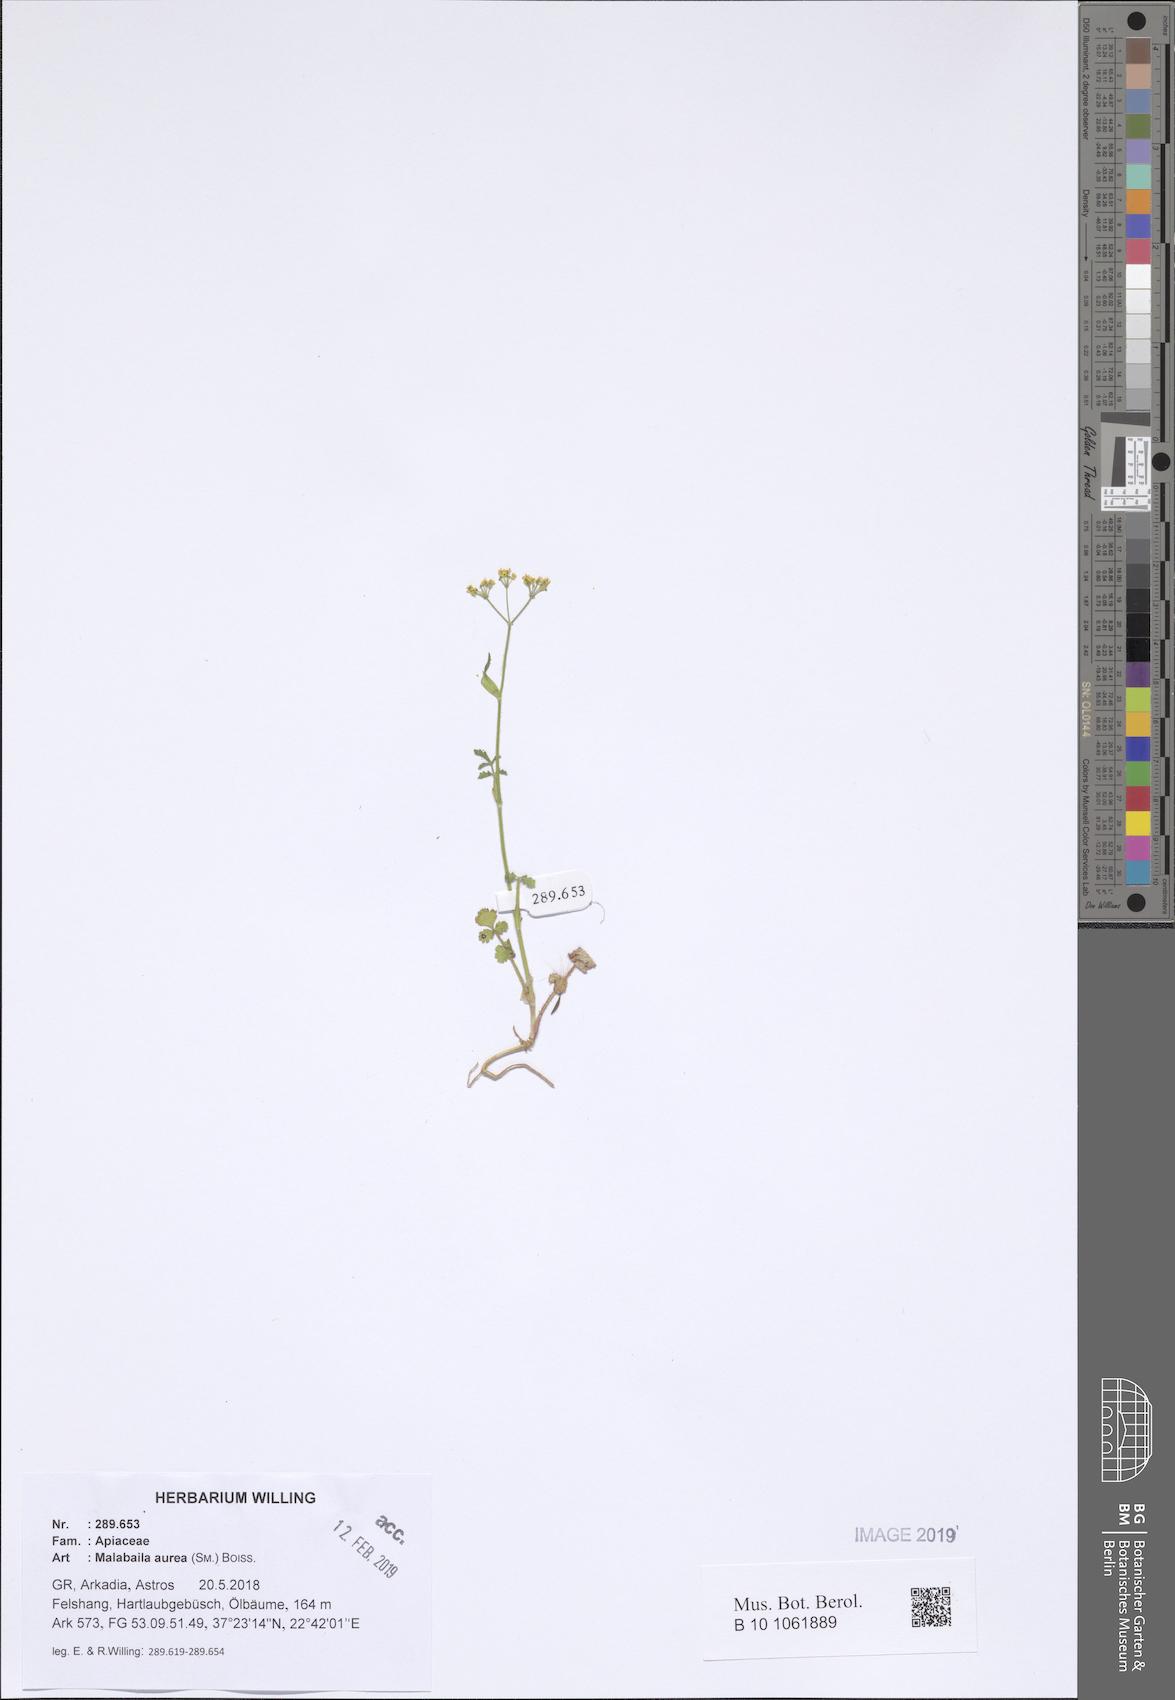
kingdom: Plantae
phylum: Tracheophyta
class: Magnoliopsida
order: Apiales
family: Apiaceae
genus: Leiotulus
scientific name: Leiotulus aureus
